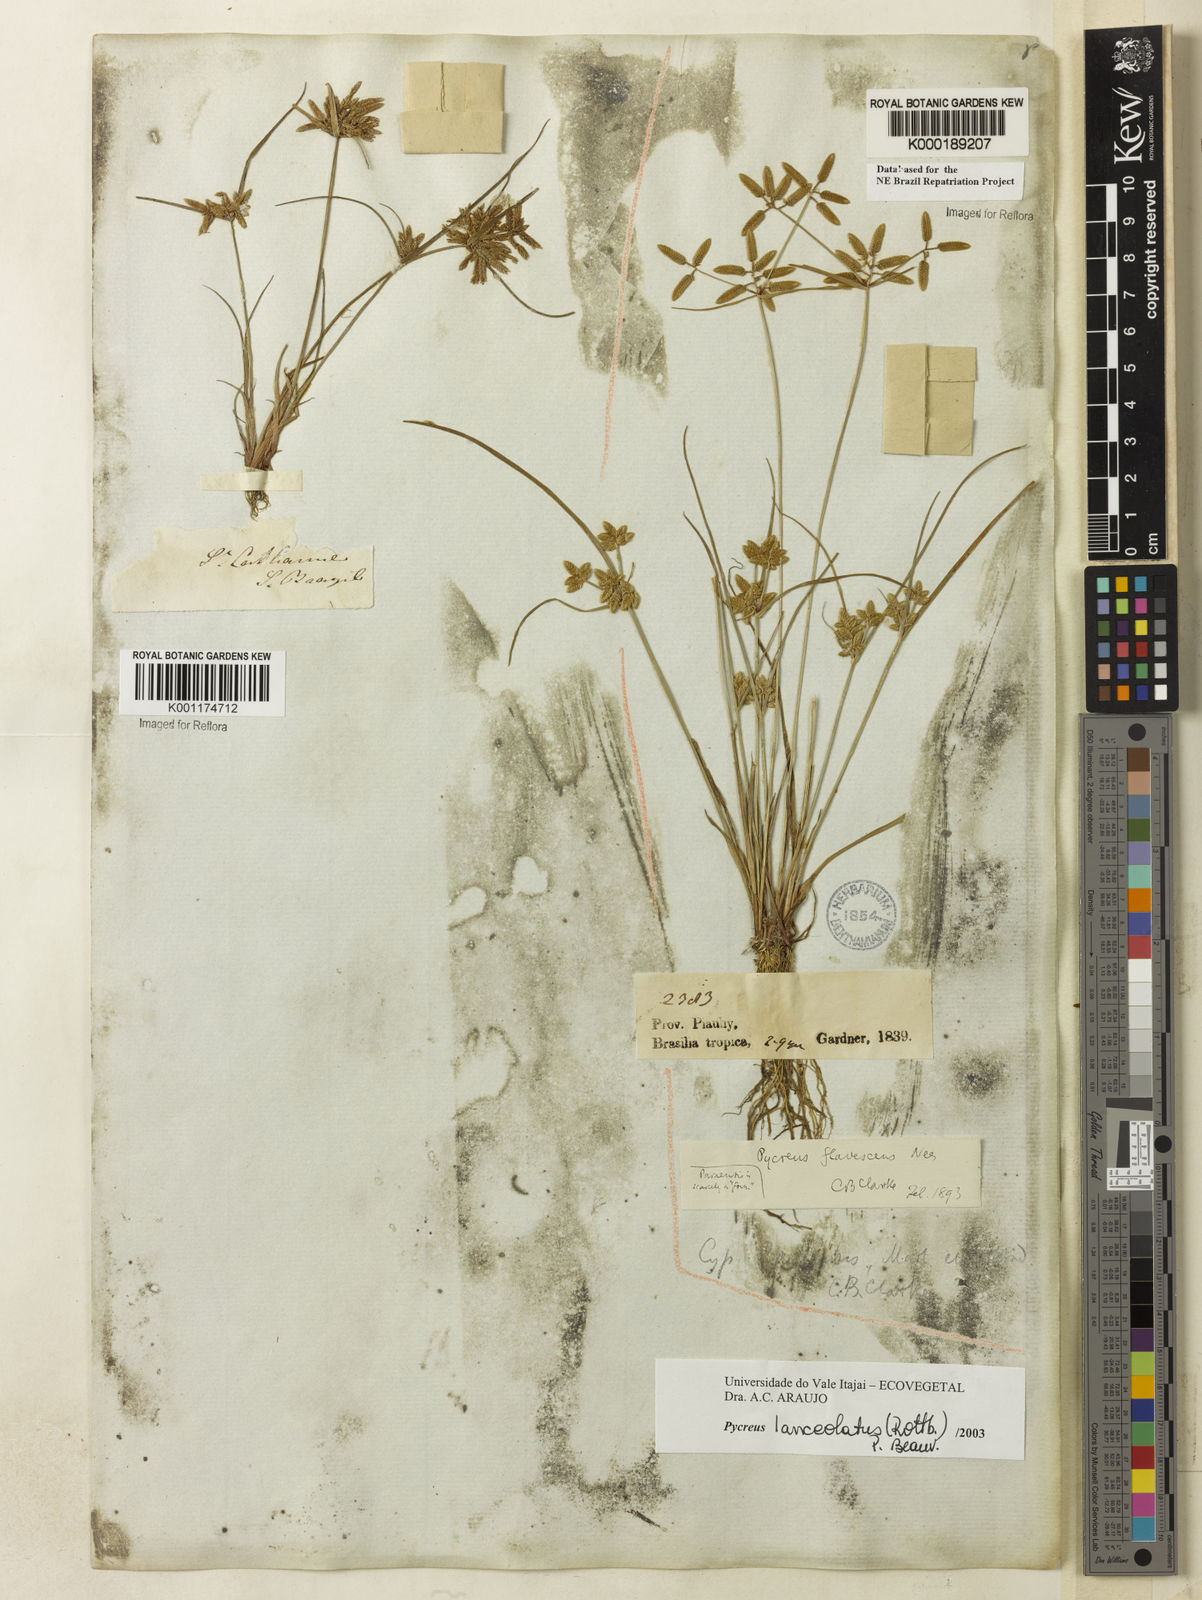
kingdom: Plantae
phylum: Tracheophyta
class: Liliopsida
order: Poales
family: Cyperaceae
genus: Cyperus
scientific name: Cyperus lanceolatus
